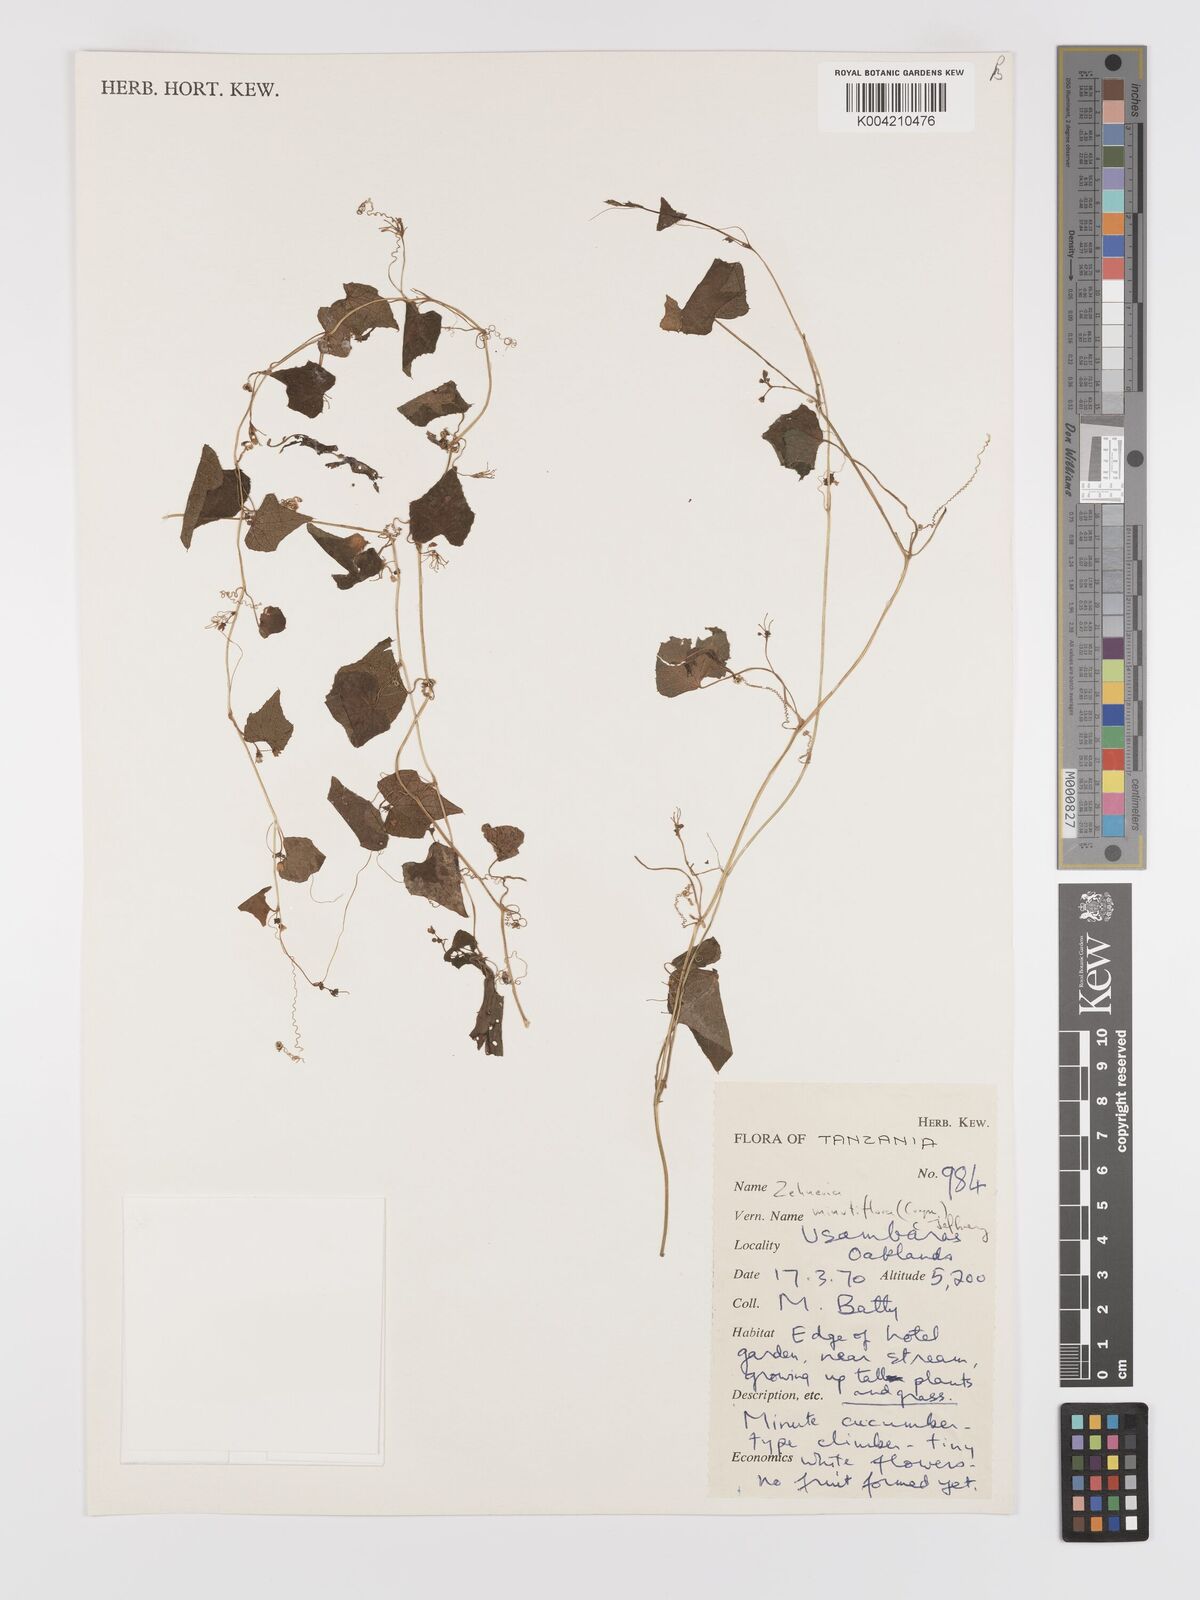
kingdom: Plantae
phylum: Tracheophyta
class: Magnoliopsida
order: Cucurbitales
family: Cucurbitaceae
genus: Zehneria
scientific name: Zehneria minutiflora
